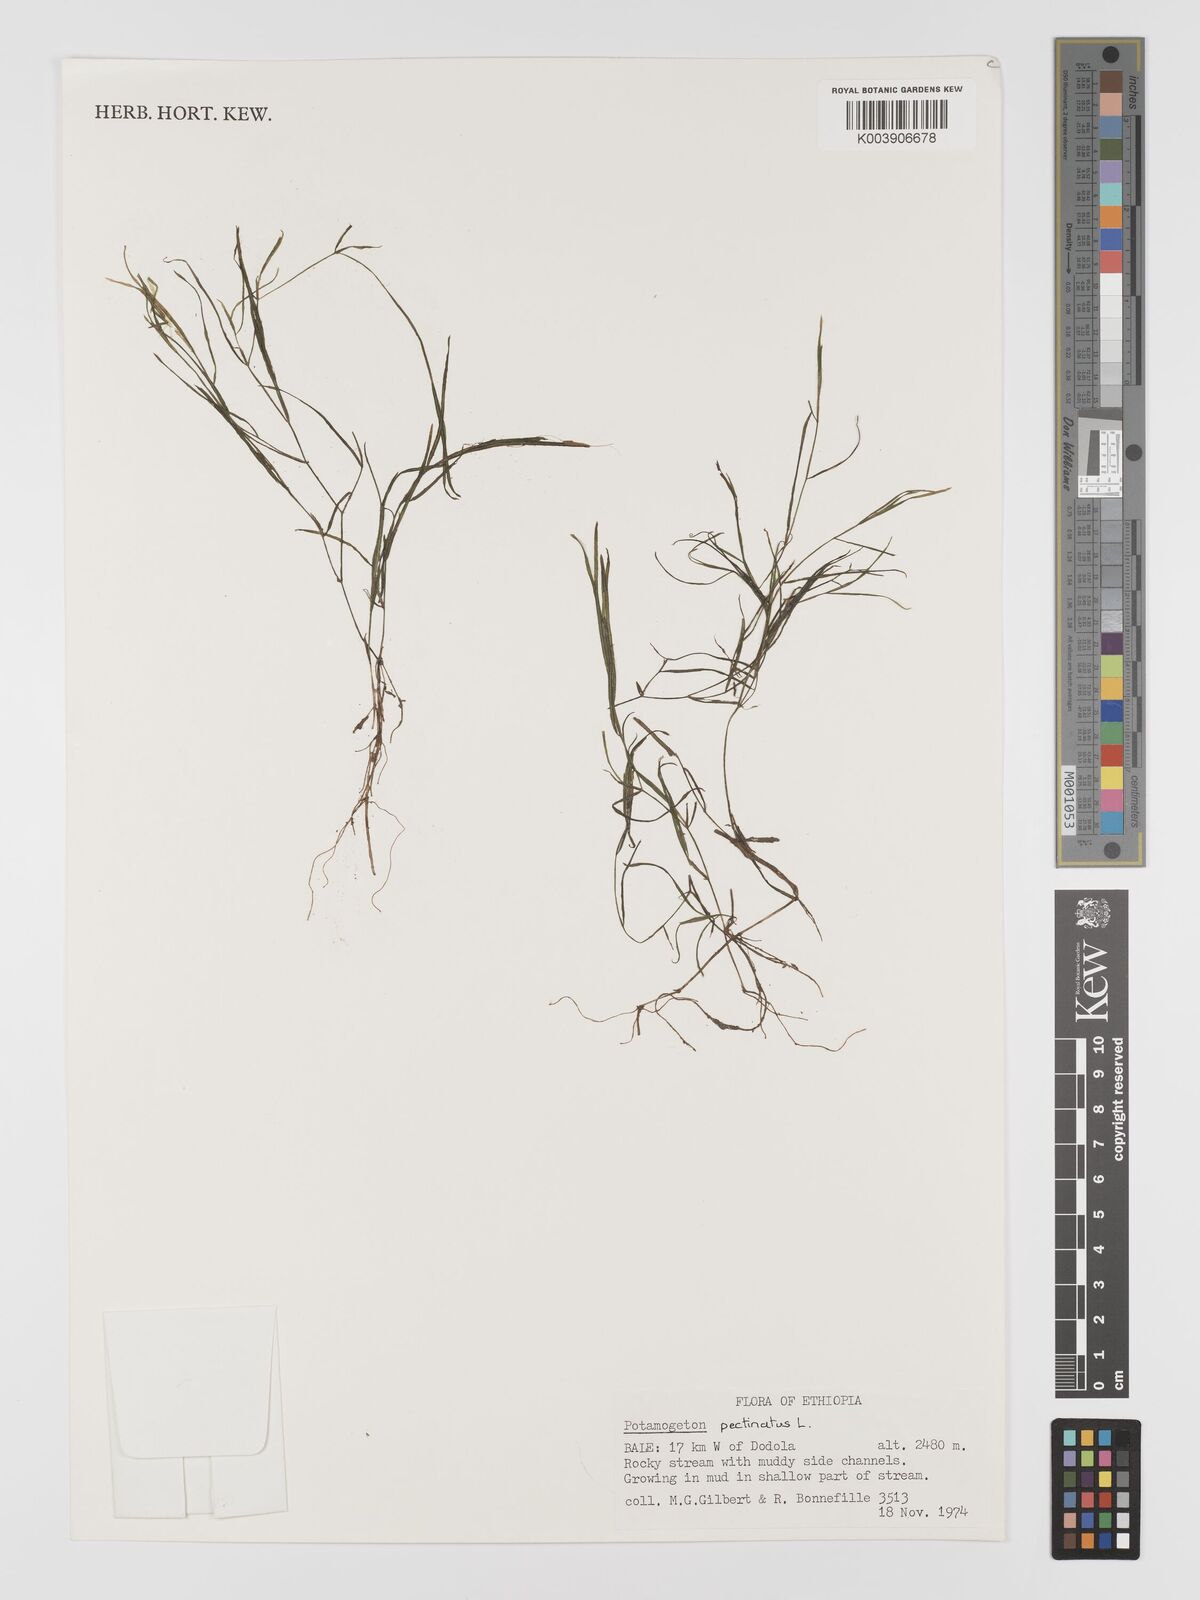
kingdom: Plantae
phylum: Tracheophyta
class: Liliopsida
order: Alismatales
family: Potamogetonaceae
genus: Potamogeton
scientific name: Potamogeton parvifolius
